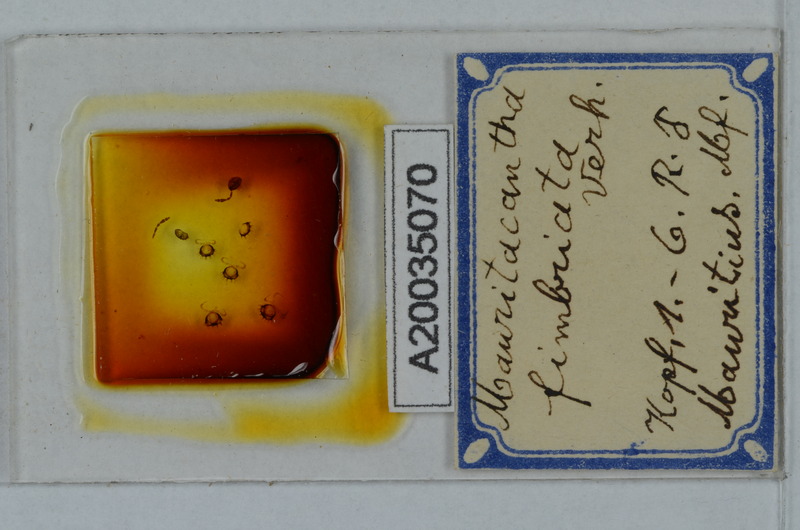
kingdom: Animalia
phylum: Arthropoda
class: Diplopoda
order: Polydesmida
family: Trichopolydesmidae
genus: Mauritacantha
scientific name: Mauritacantha fimbriata
